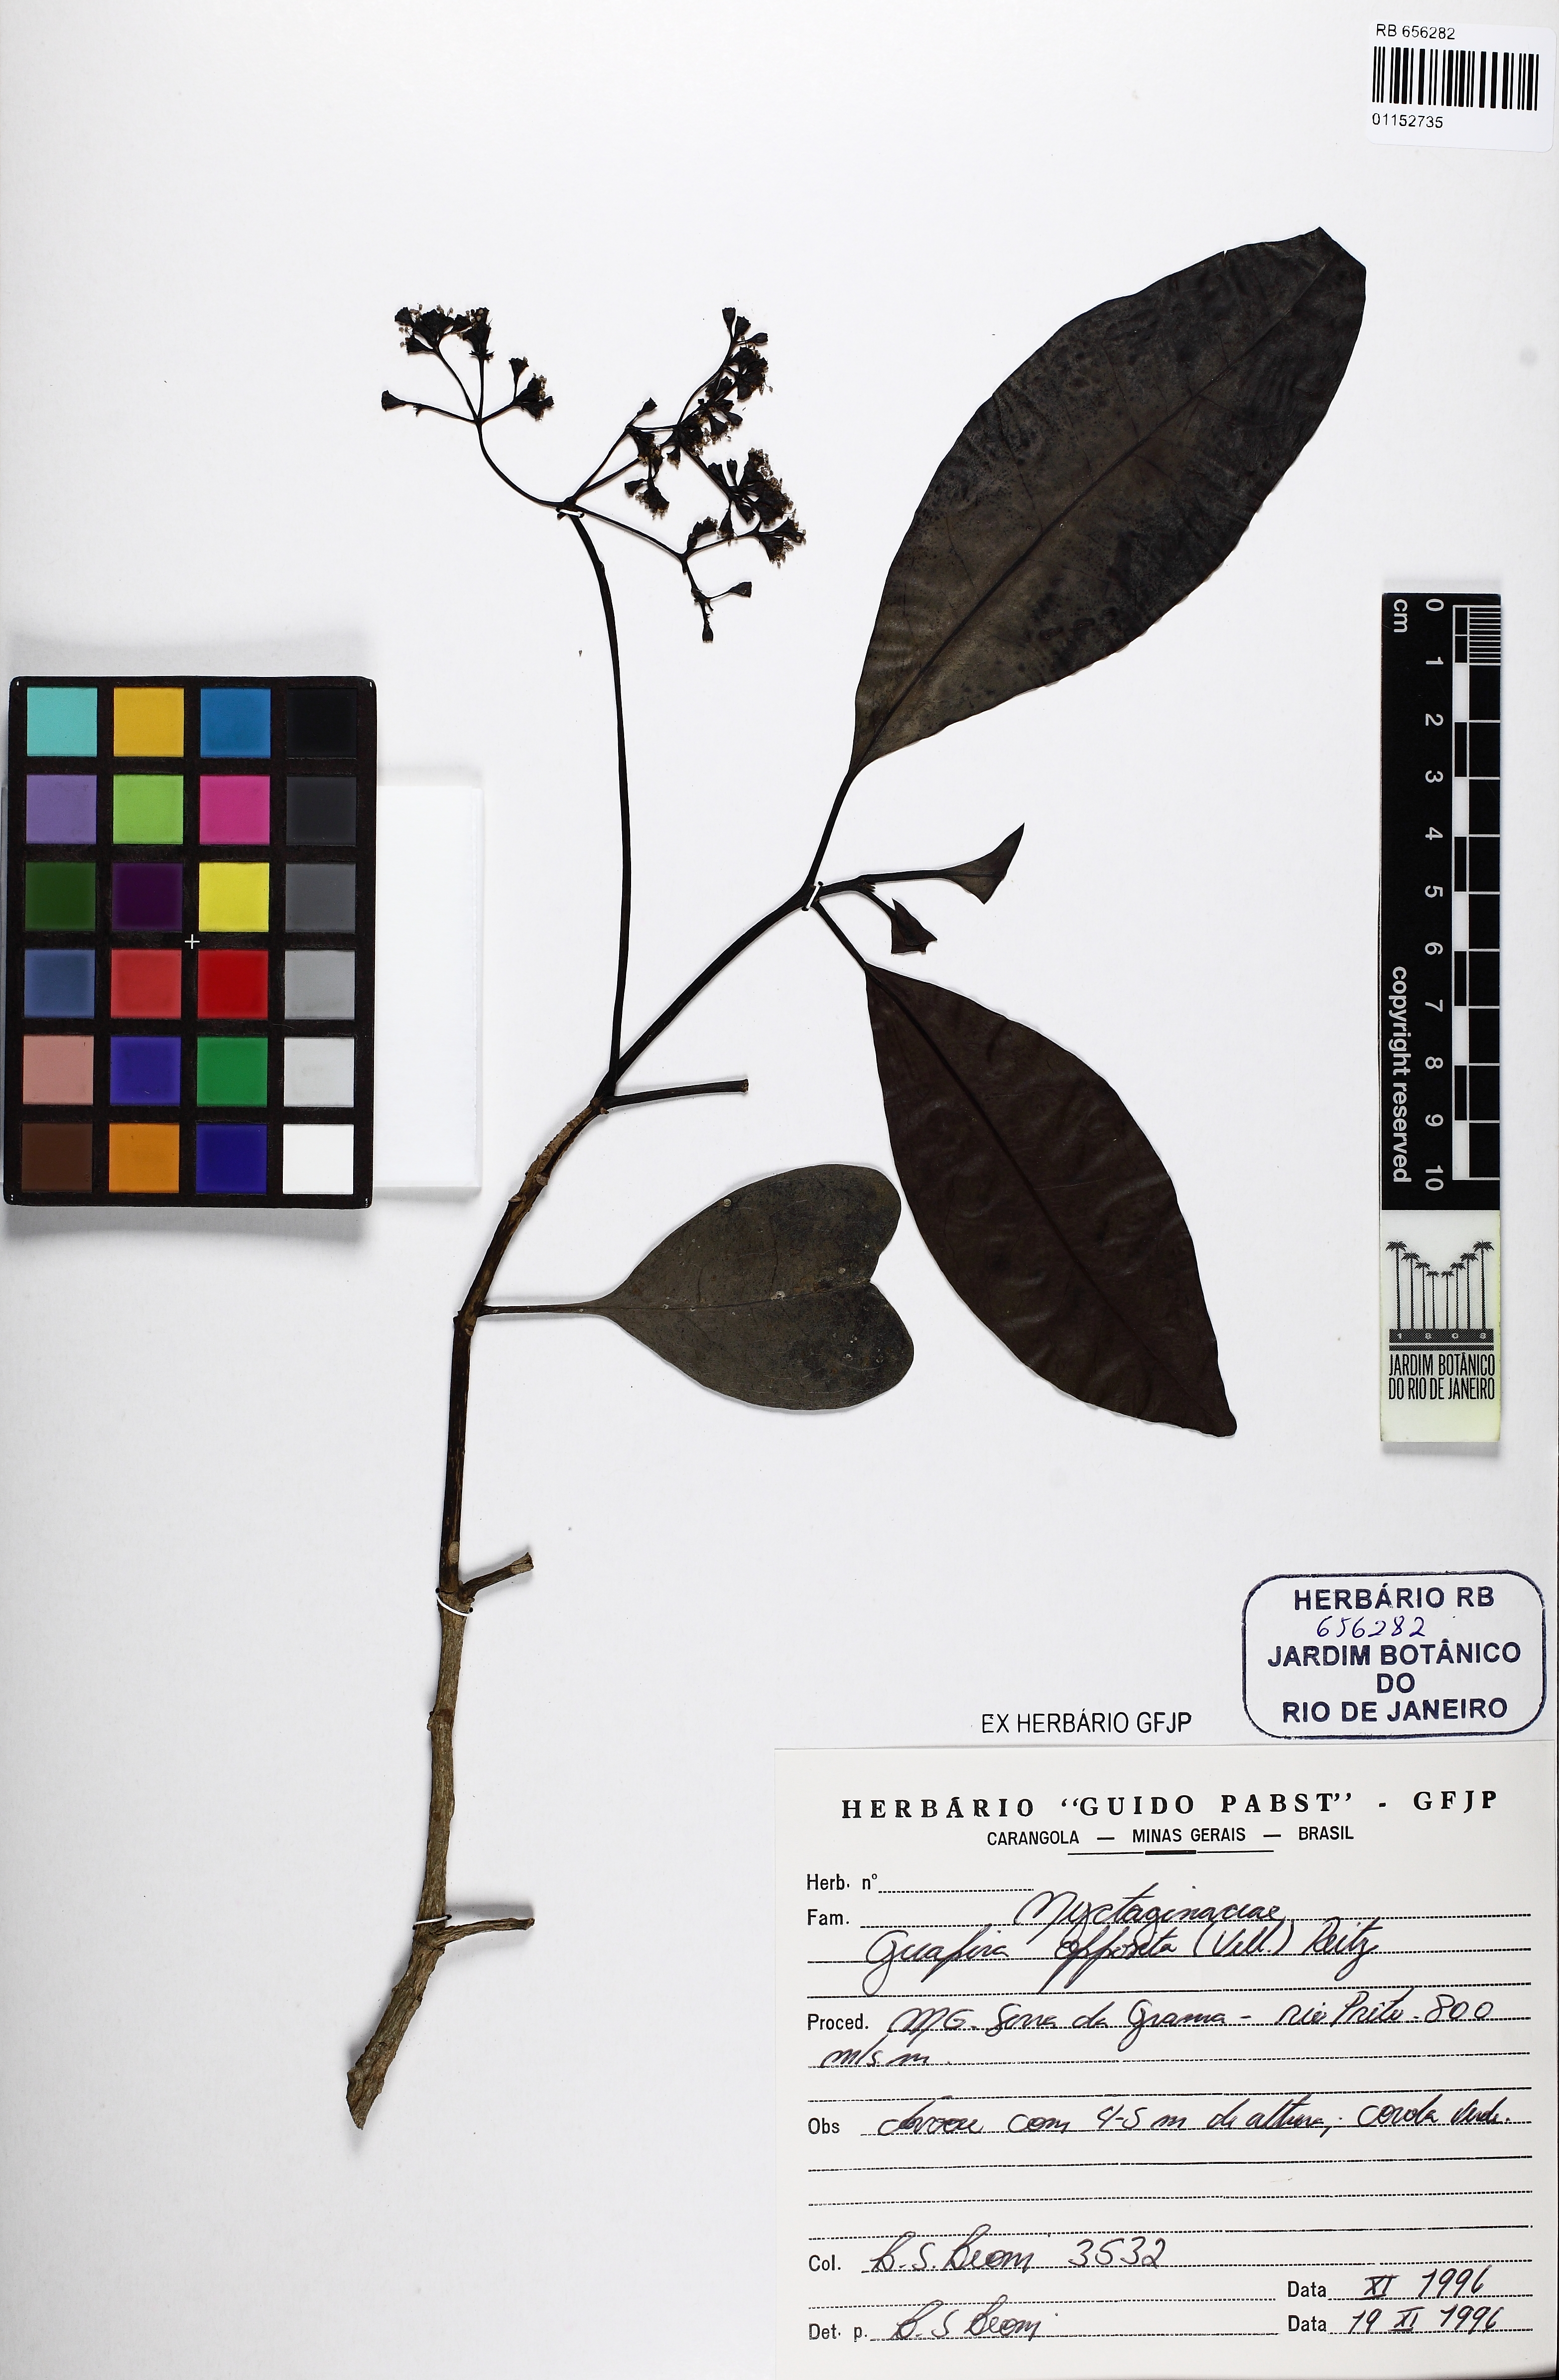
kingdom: Plantae
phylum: Tracheophyta
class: Magnoliopsida
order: Caryophyllales
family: Nyctaginaceae
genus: Guapira
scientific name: Guapira opposita
